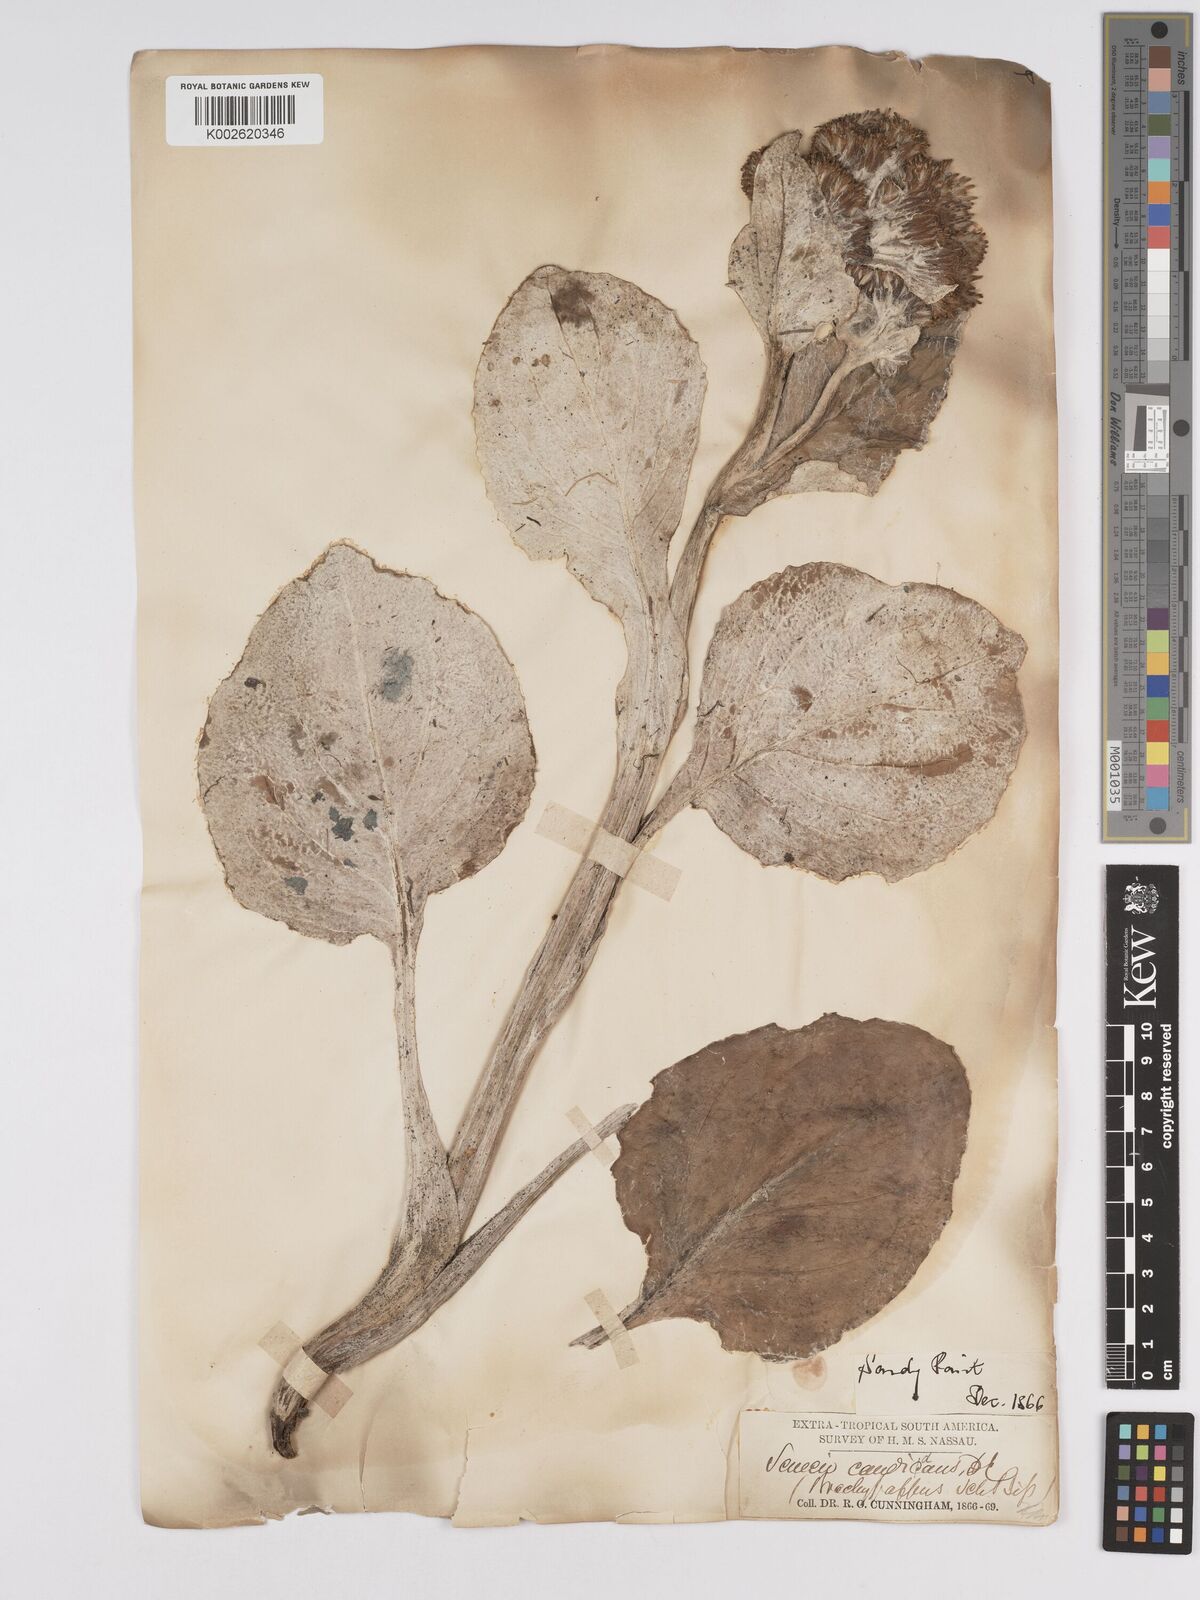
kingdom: Plantae
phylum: Tracheophyta
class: Magnoliopsida
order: Asterales
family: Asteraceae
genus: Senecio
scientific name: Senecio candidans
